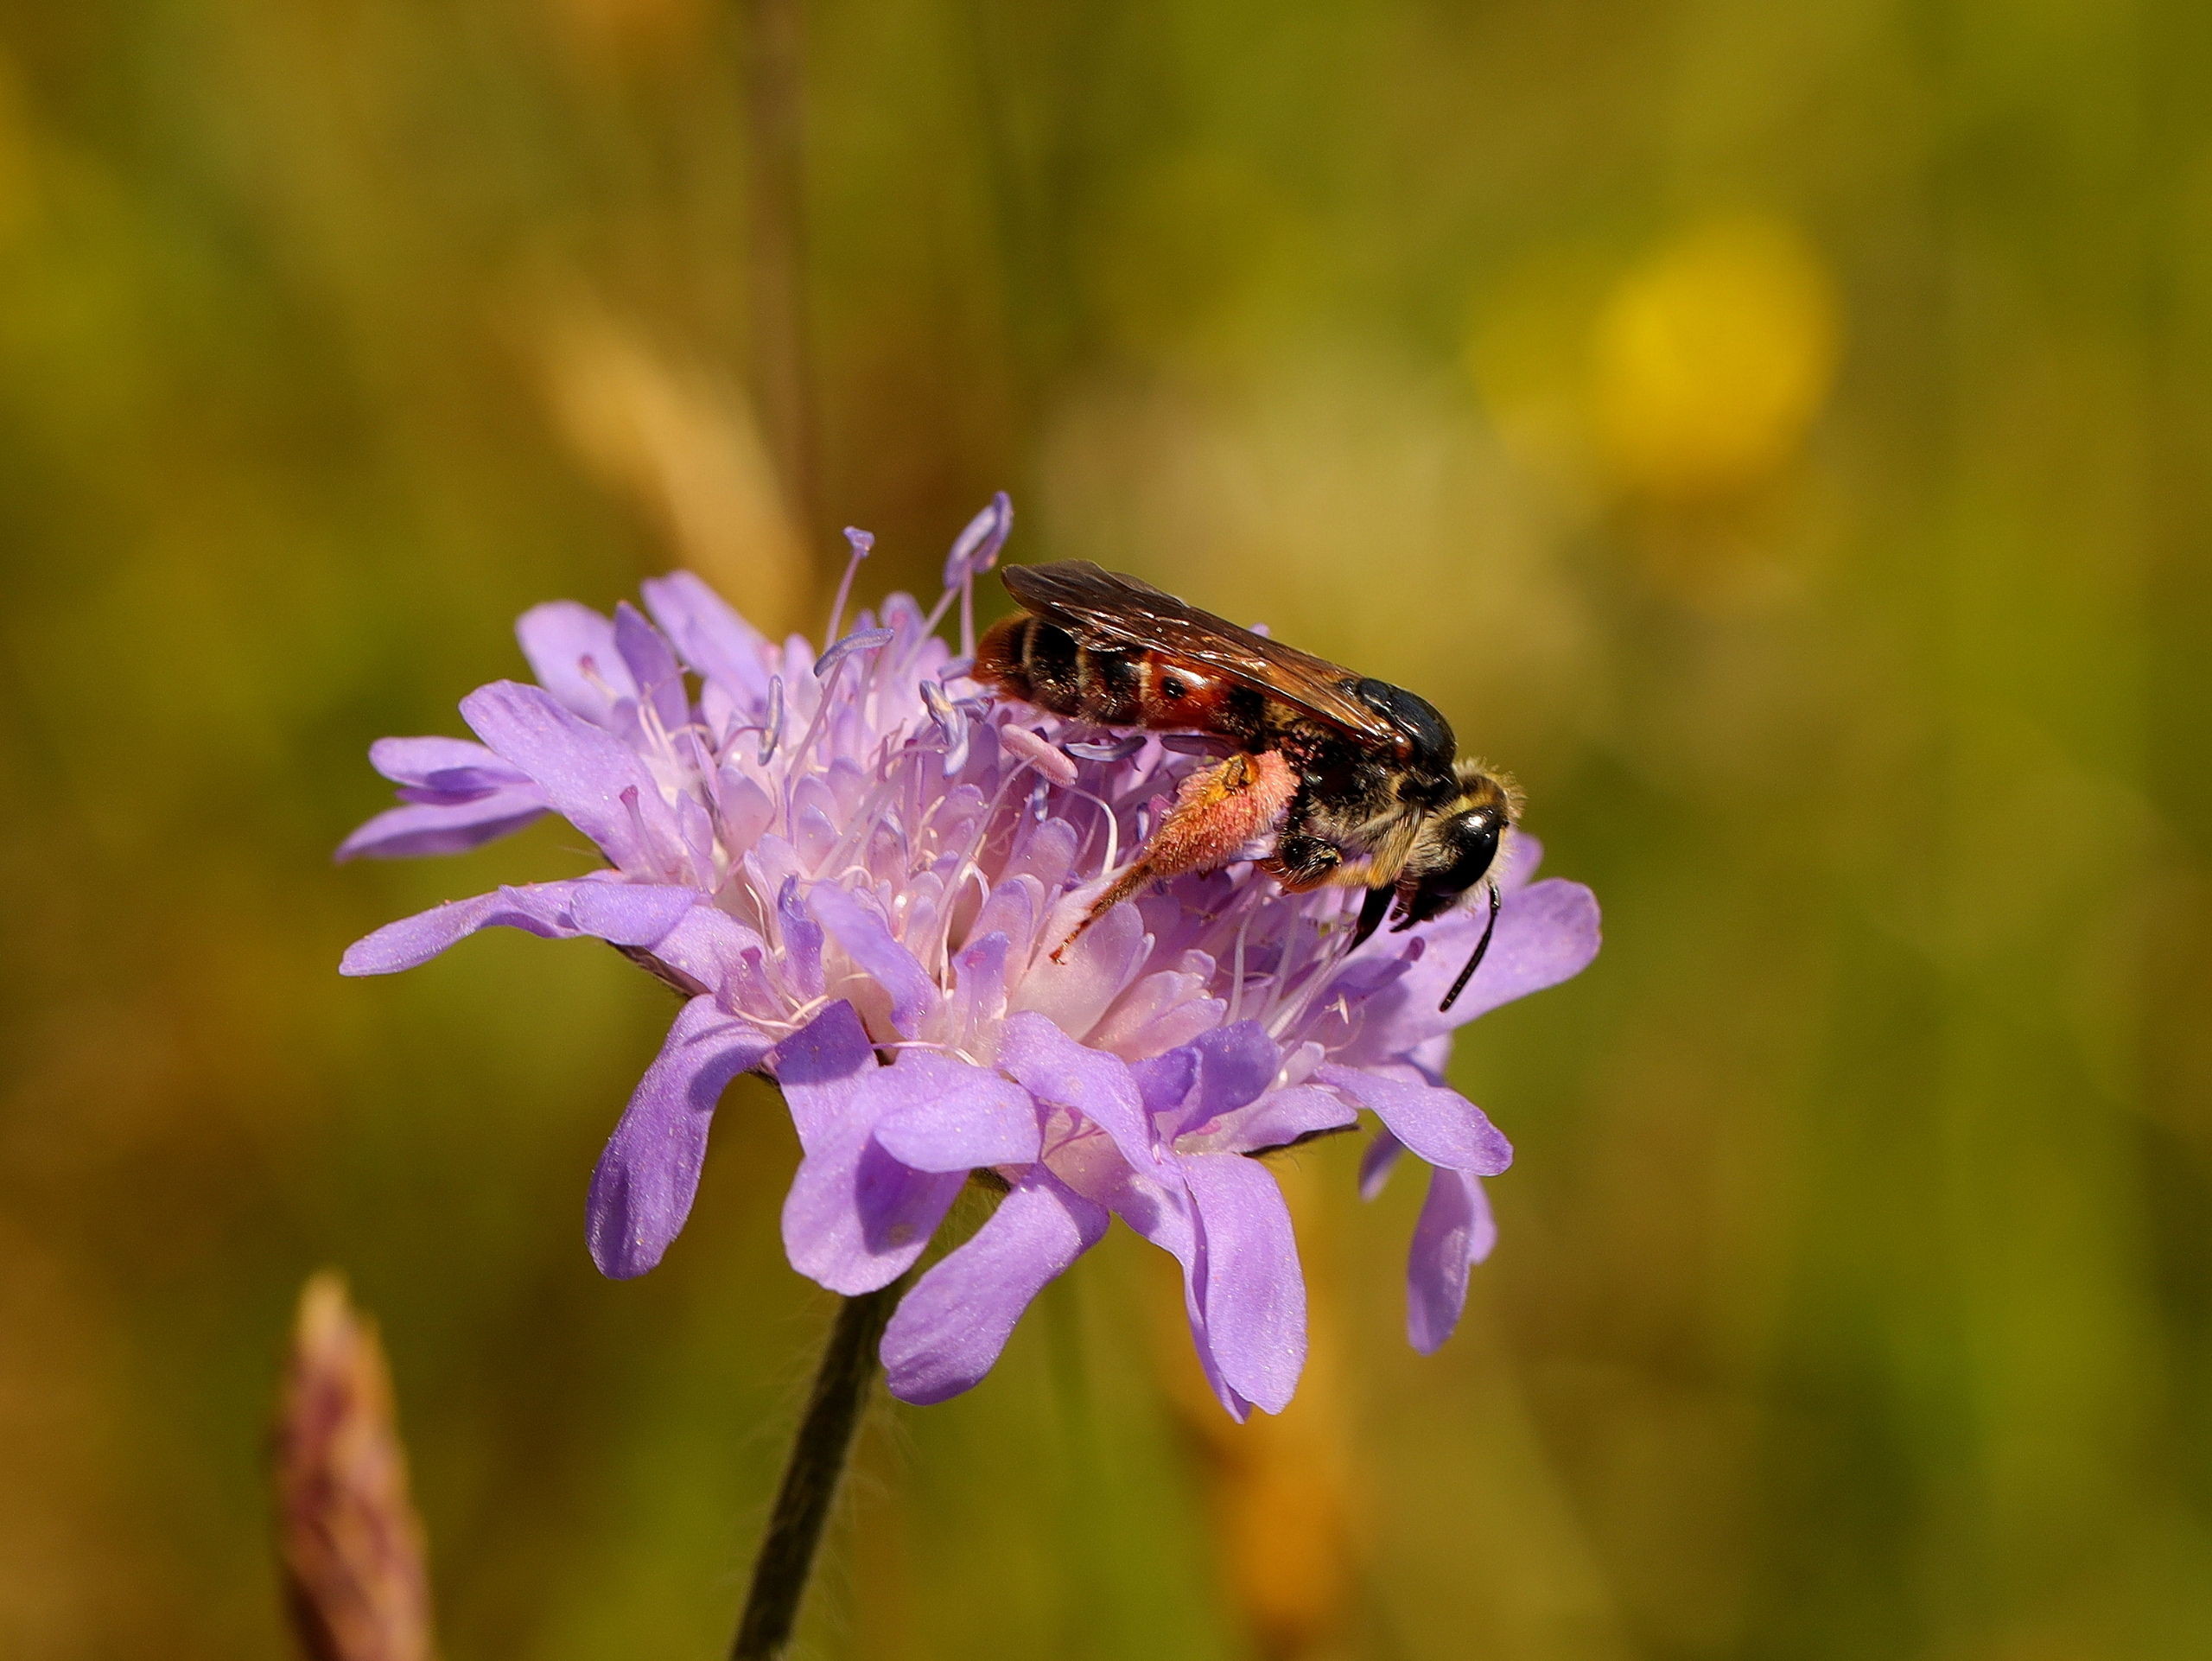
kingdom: Animalia
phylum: Arthropoda
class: Insecta
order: Hymenoptera
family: Andrenidae
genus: Andrena
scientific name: Andrena hattorfiana
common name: Blåhatjordbi
